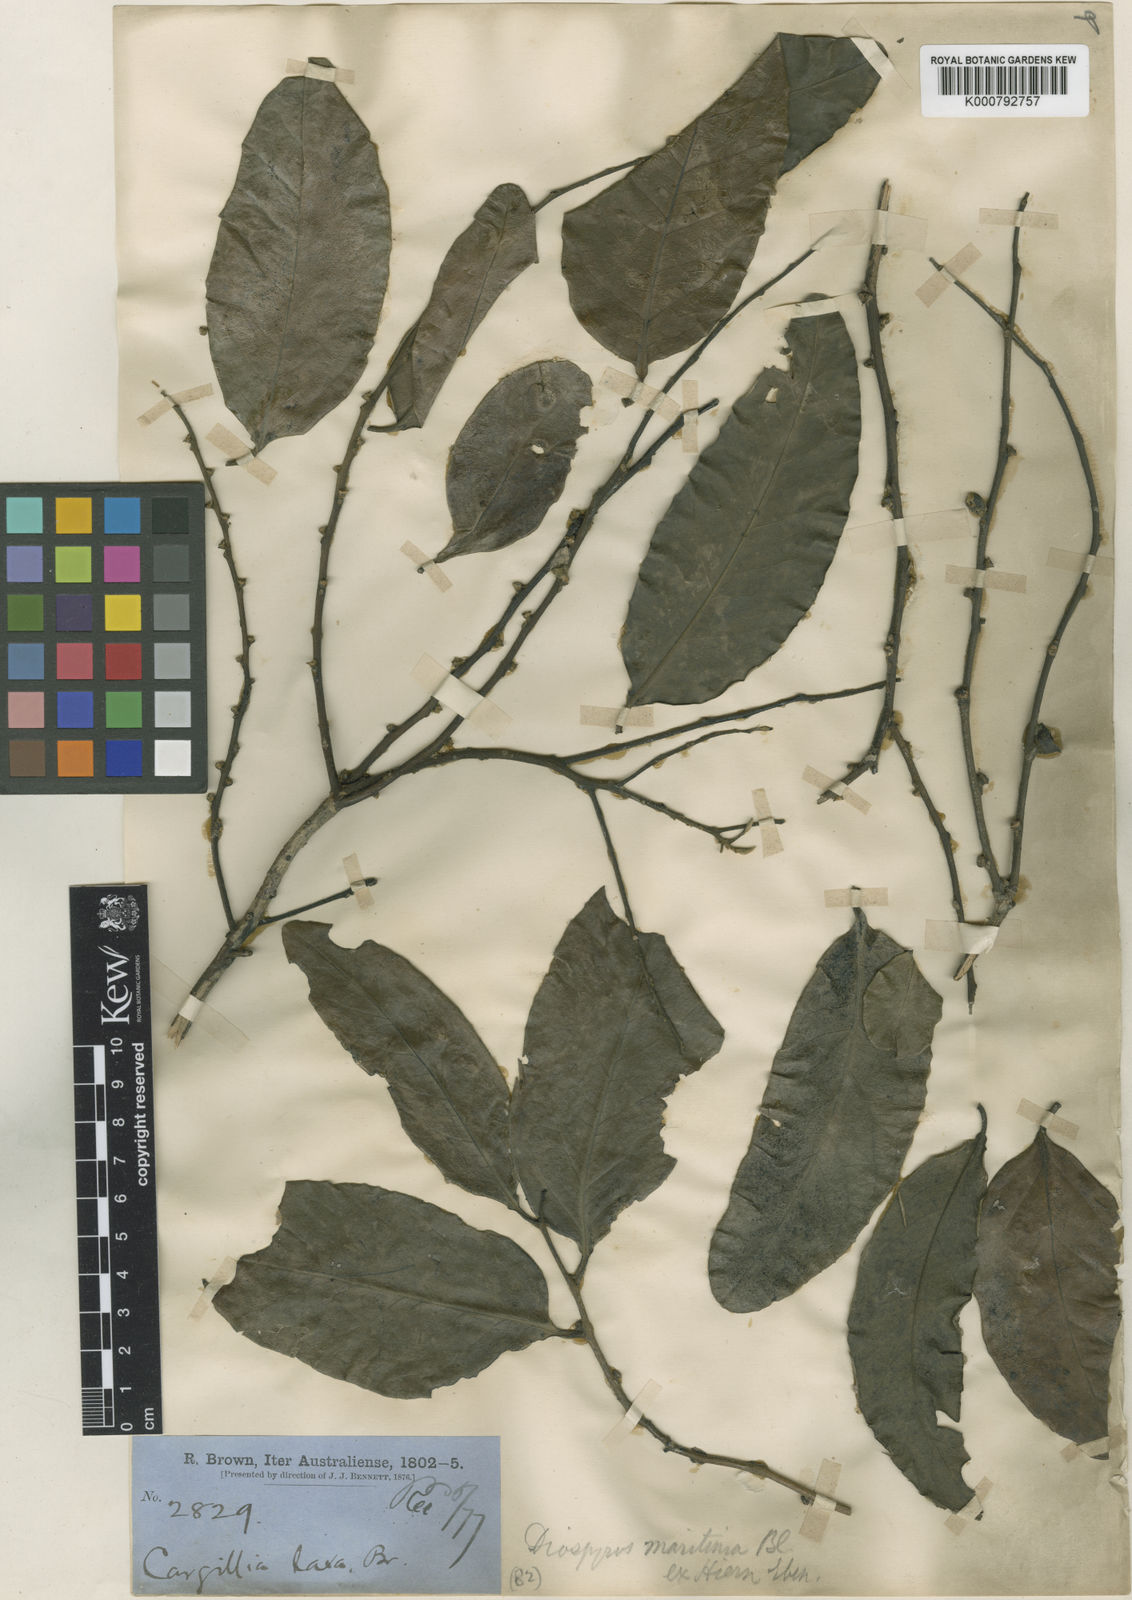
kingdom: Plantae
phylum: Tracheophyta
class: Magnoliopsida
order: Ericales
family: Ebenaceae
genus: Diospyros
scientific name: Diospyros maritima
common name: Malaysian persimmon
